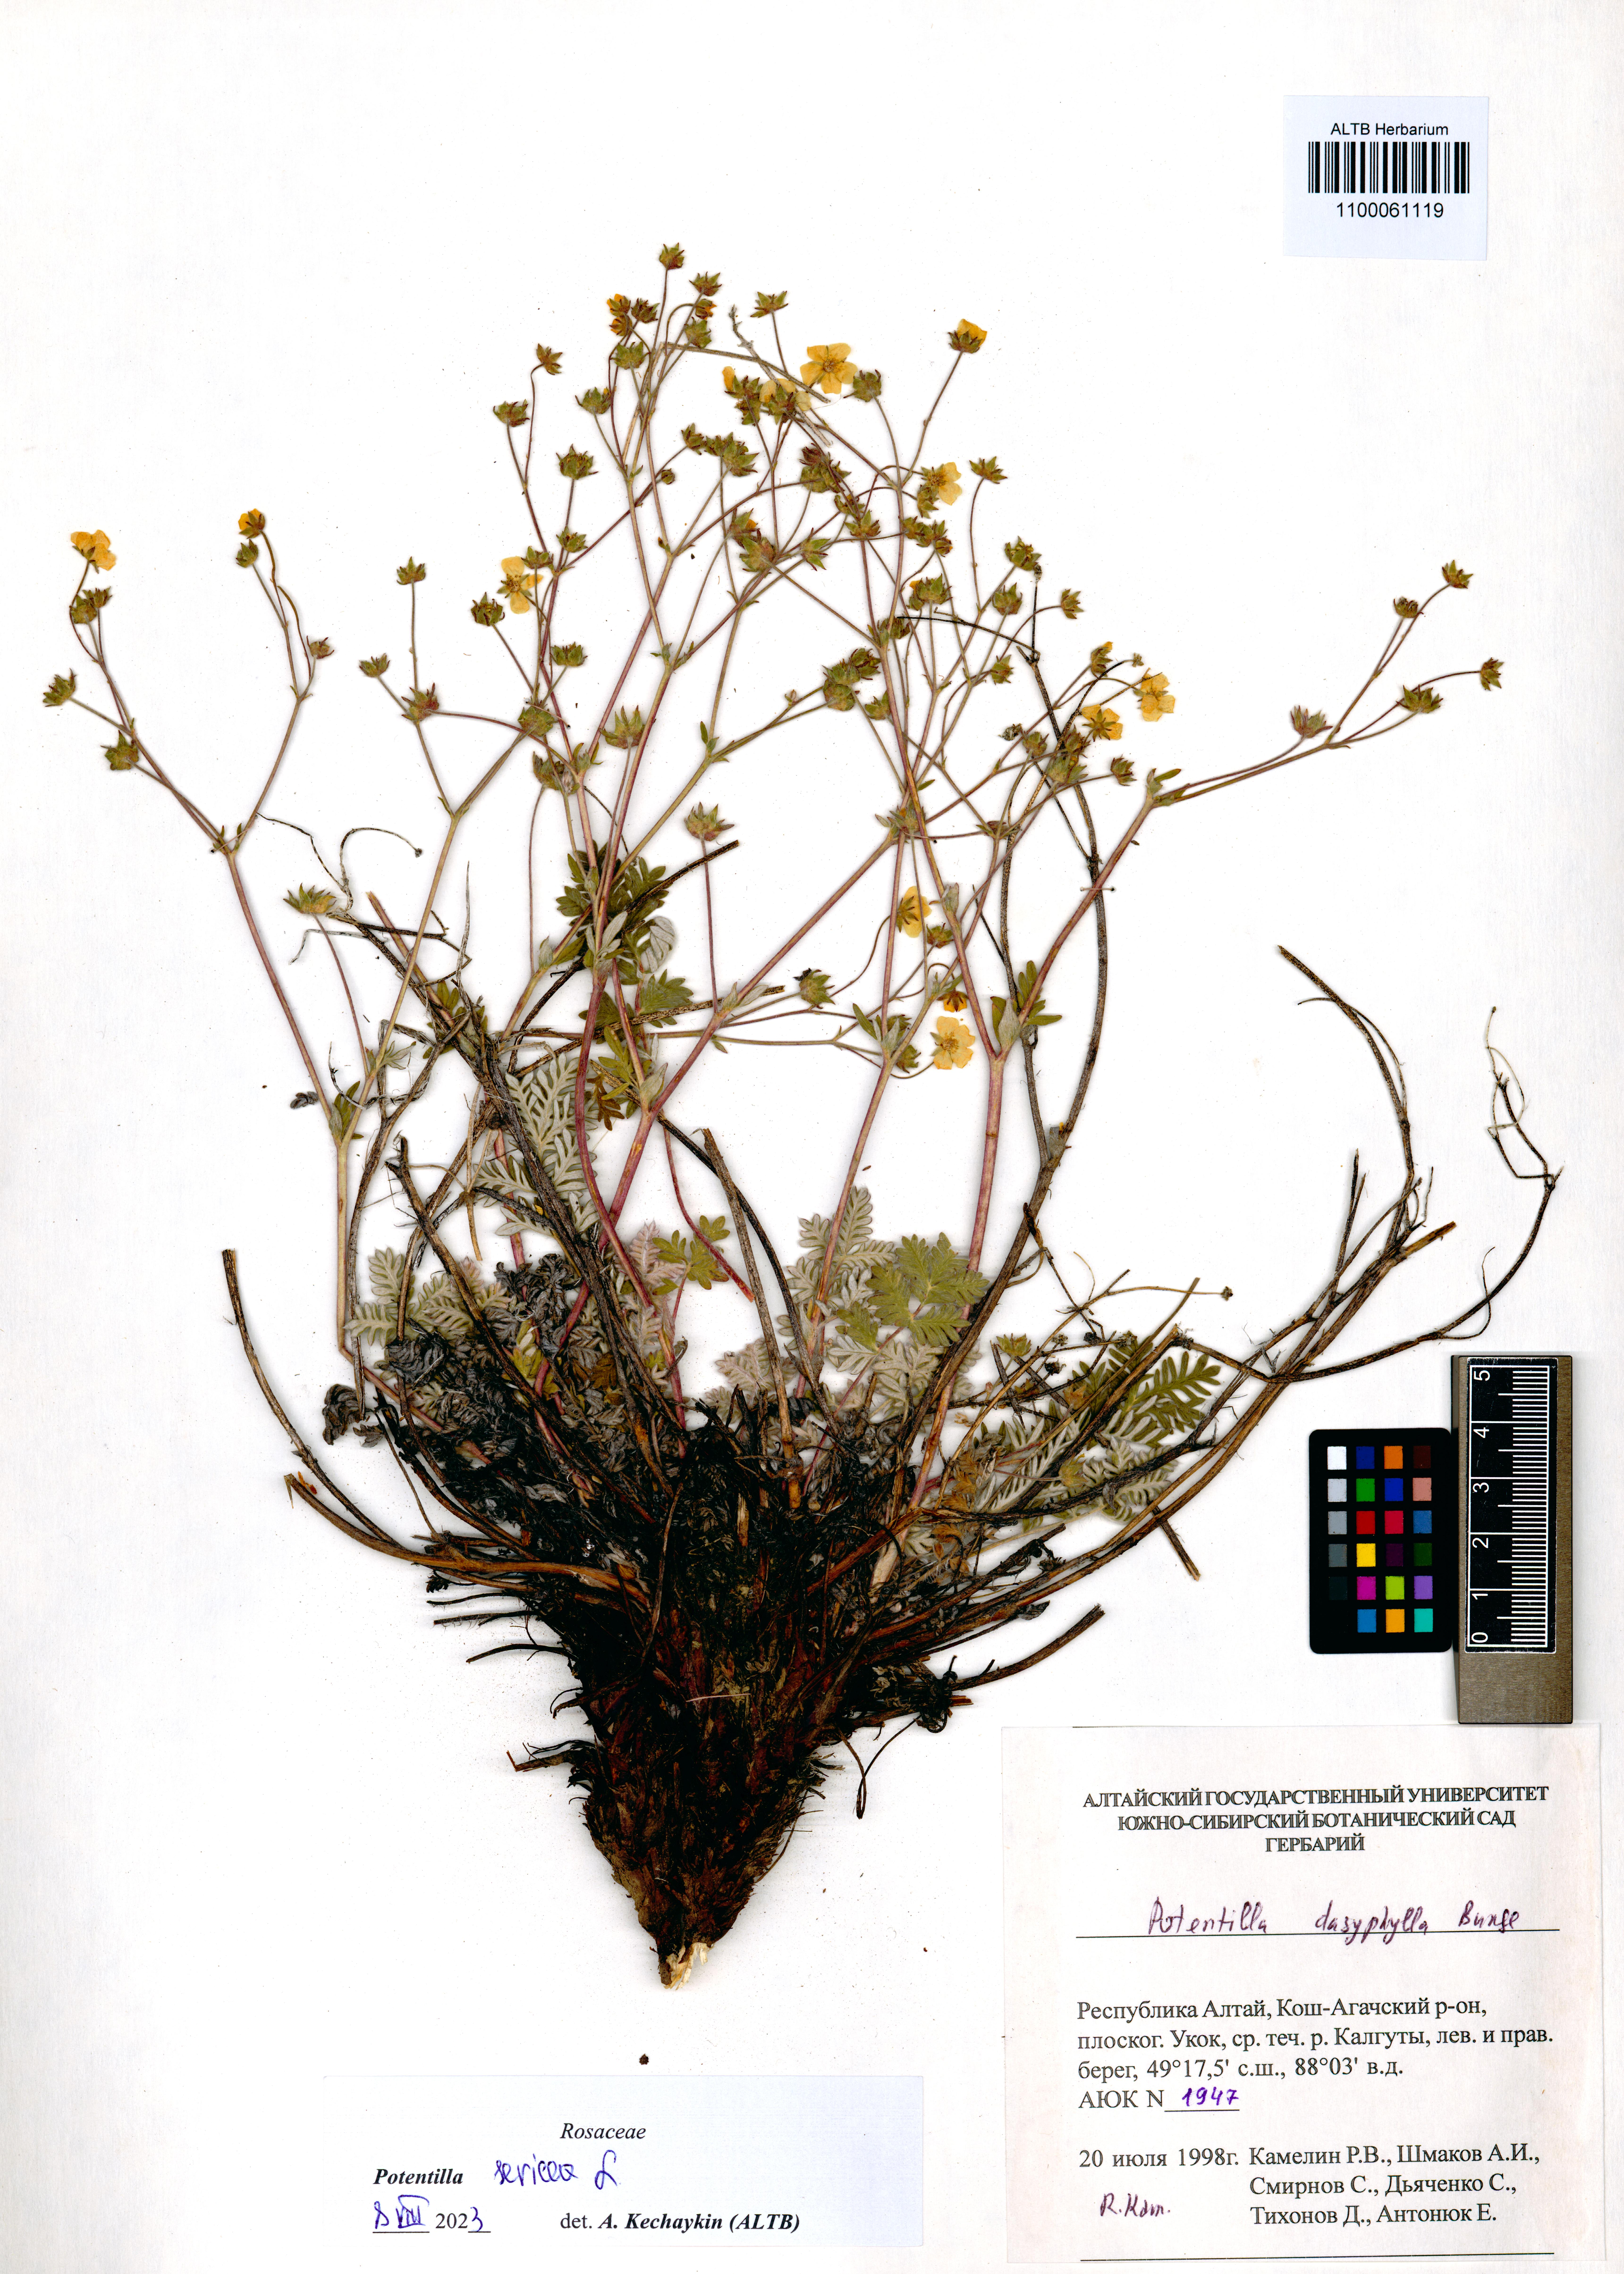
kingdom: Plantae
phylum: Tracheophyta
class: Magnoliopsida
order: Rosales
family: Rosaceae
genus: Potentilla
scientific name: Potentilla sericea
